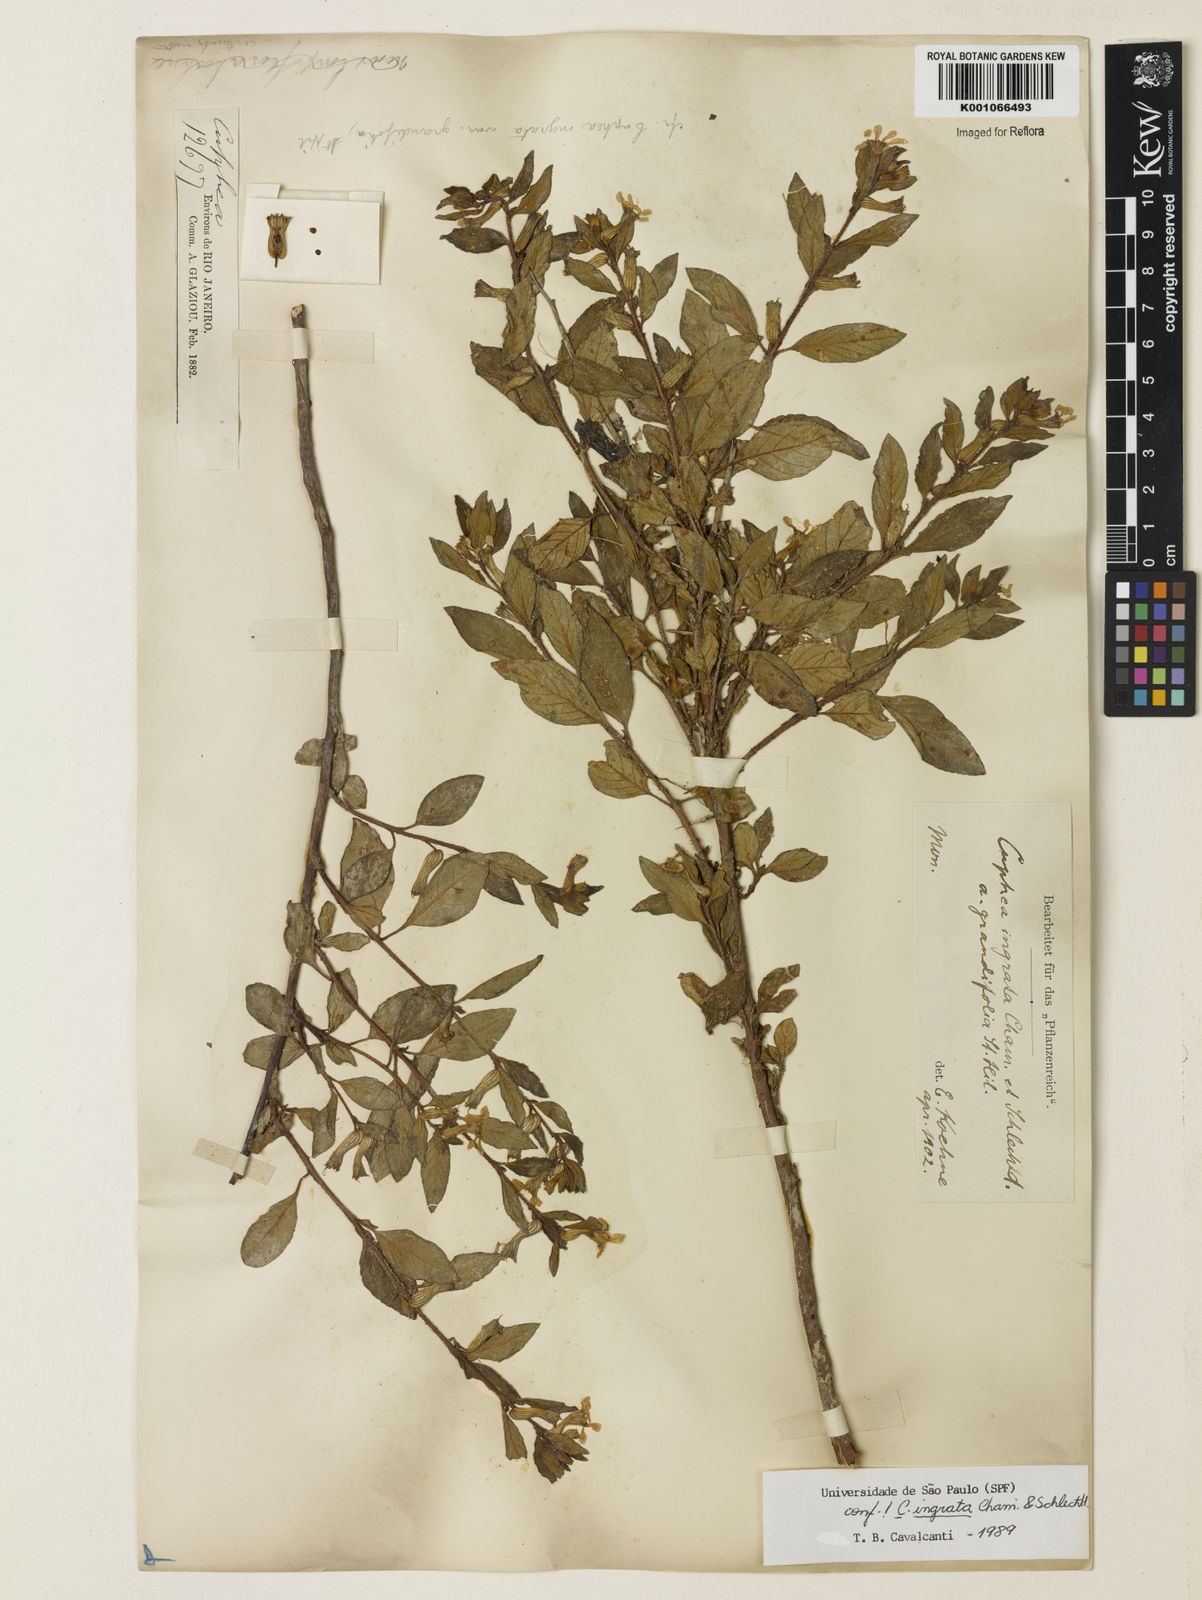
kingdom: Plantae
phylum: Tracheophyta
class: Magnoliopsida
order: Myrtales
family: Lythraceae
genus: Cuphea
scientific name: Cuphea ingrata
